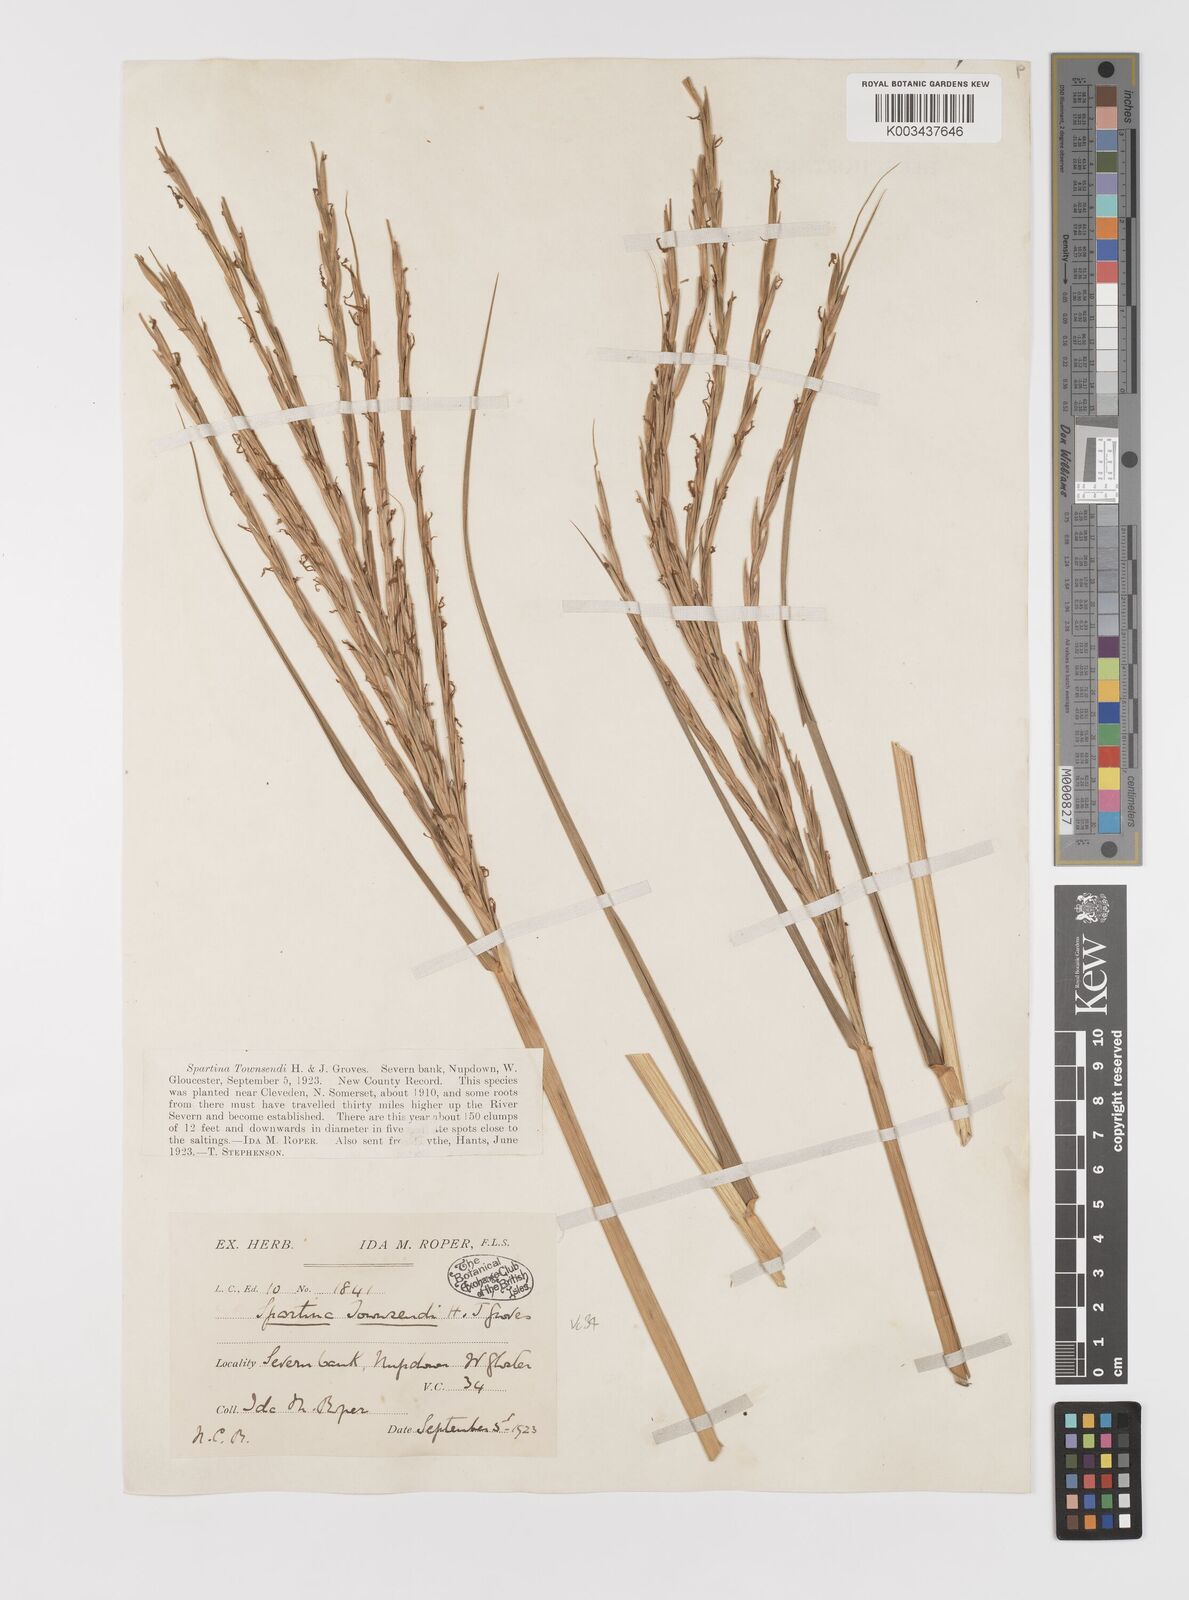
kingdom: Plantae
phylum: Tracheophyta
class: Liliopsida
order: Poales
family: Poaceae
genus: Sporobolus
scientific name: Sporobolus anglicus
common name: English cordgrass
